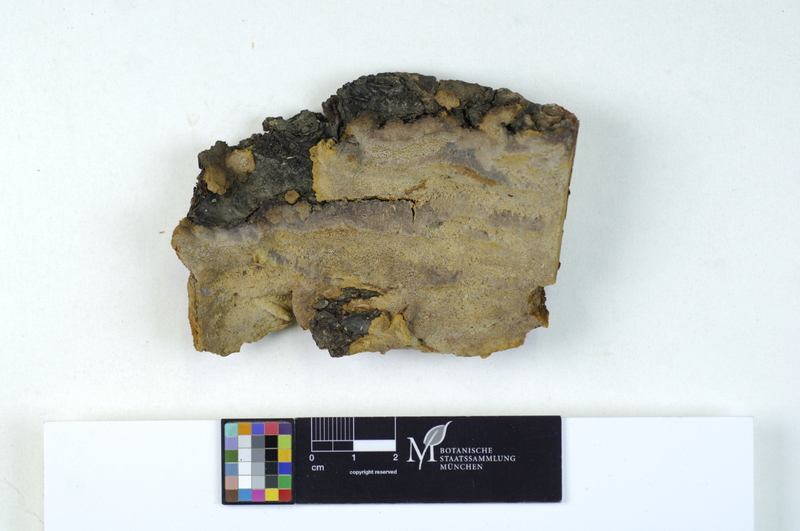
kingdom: Plantae
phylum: Tracheophyta
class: Magnoliopsida
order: Fagales
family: Fagaceae
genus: Quercus
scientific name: Quercus
